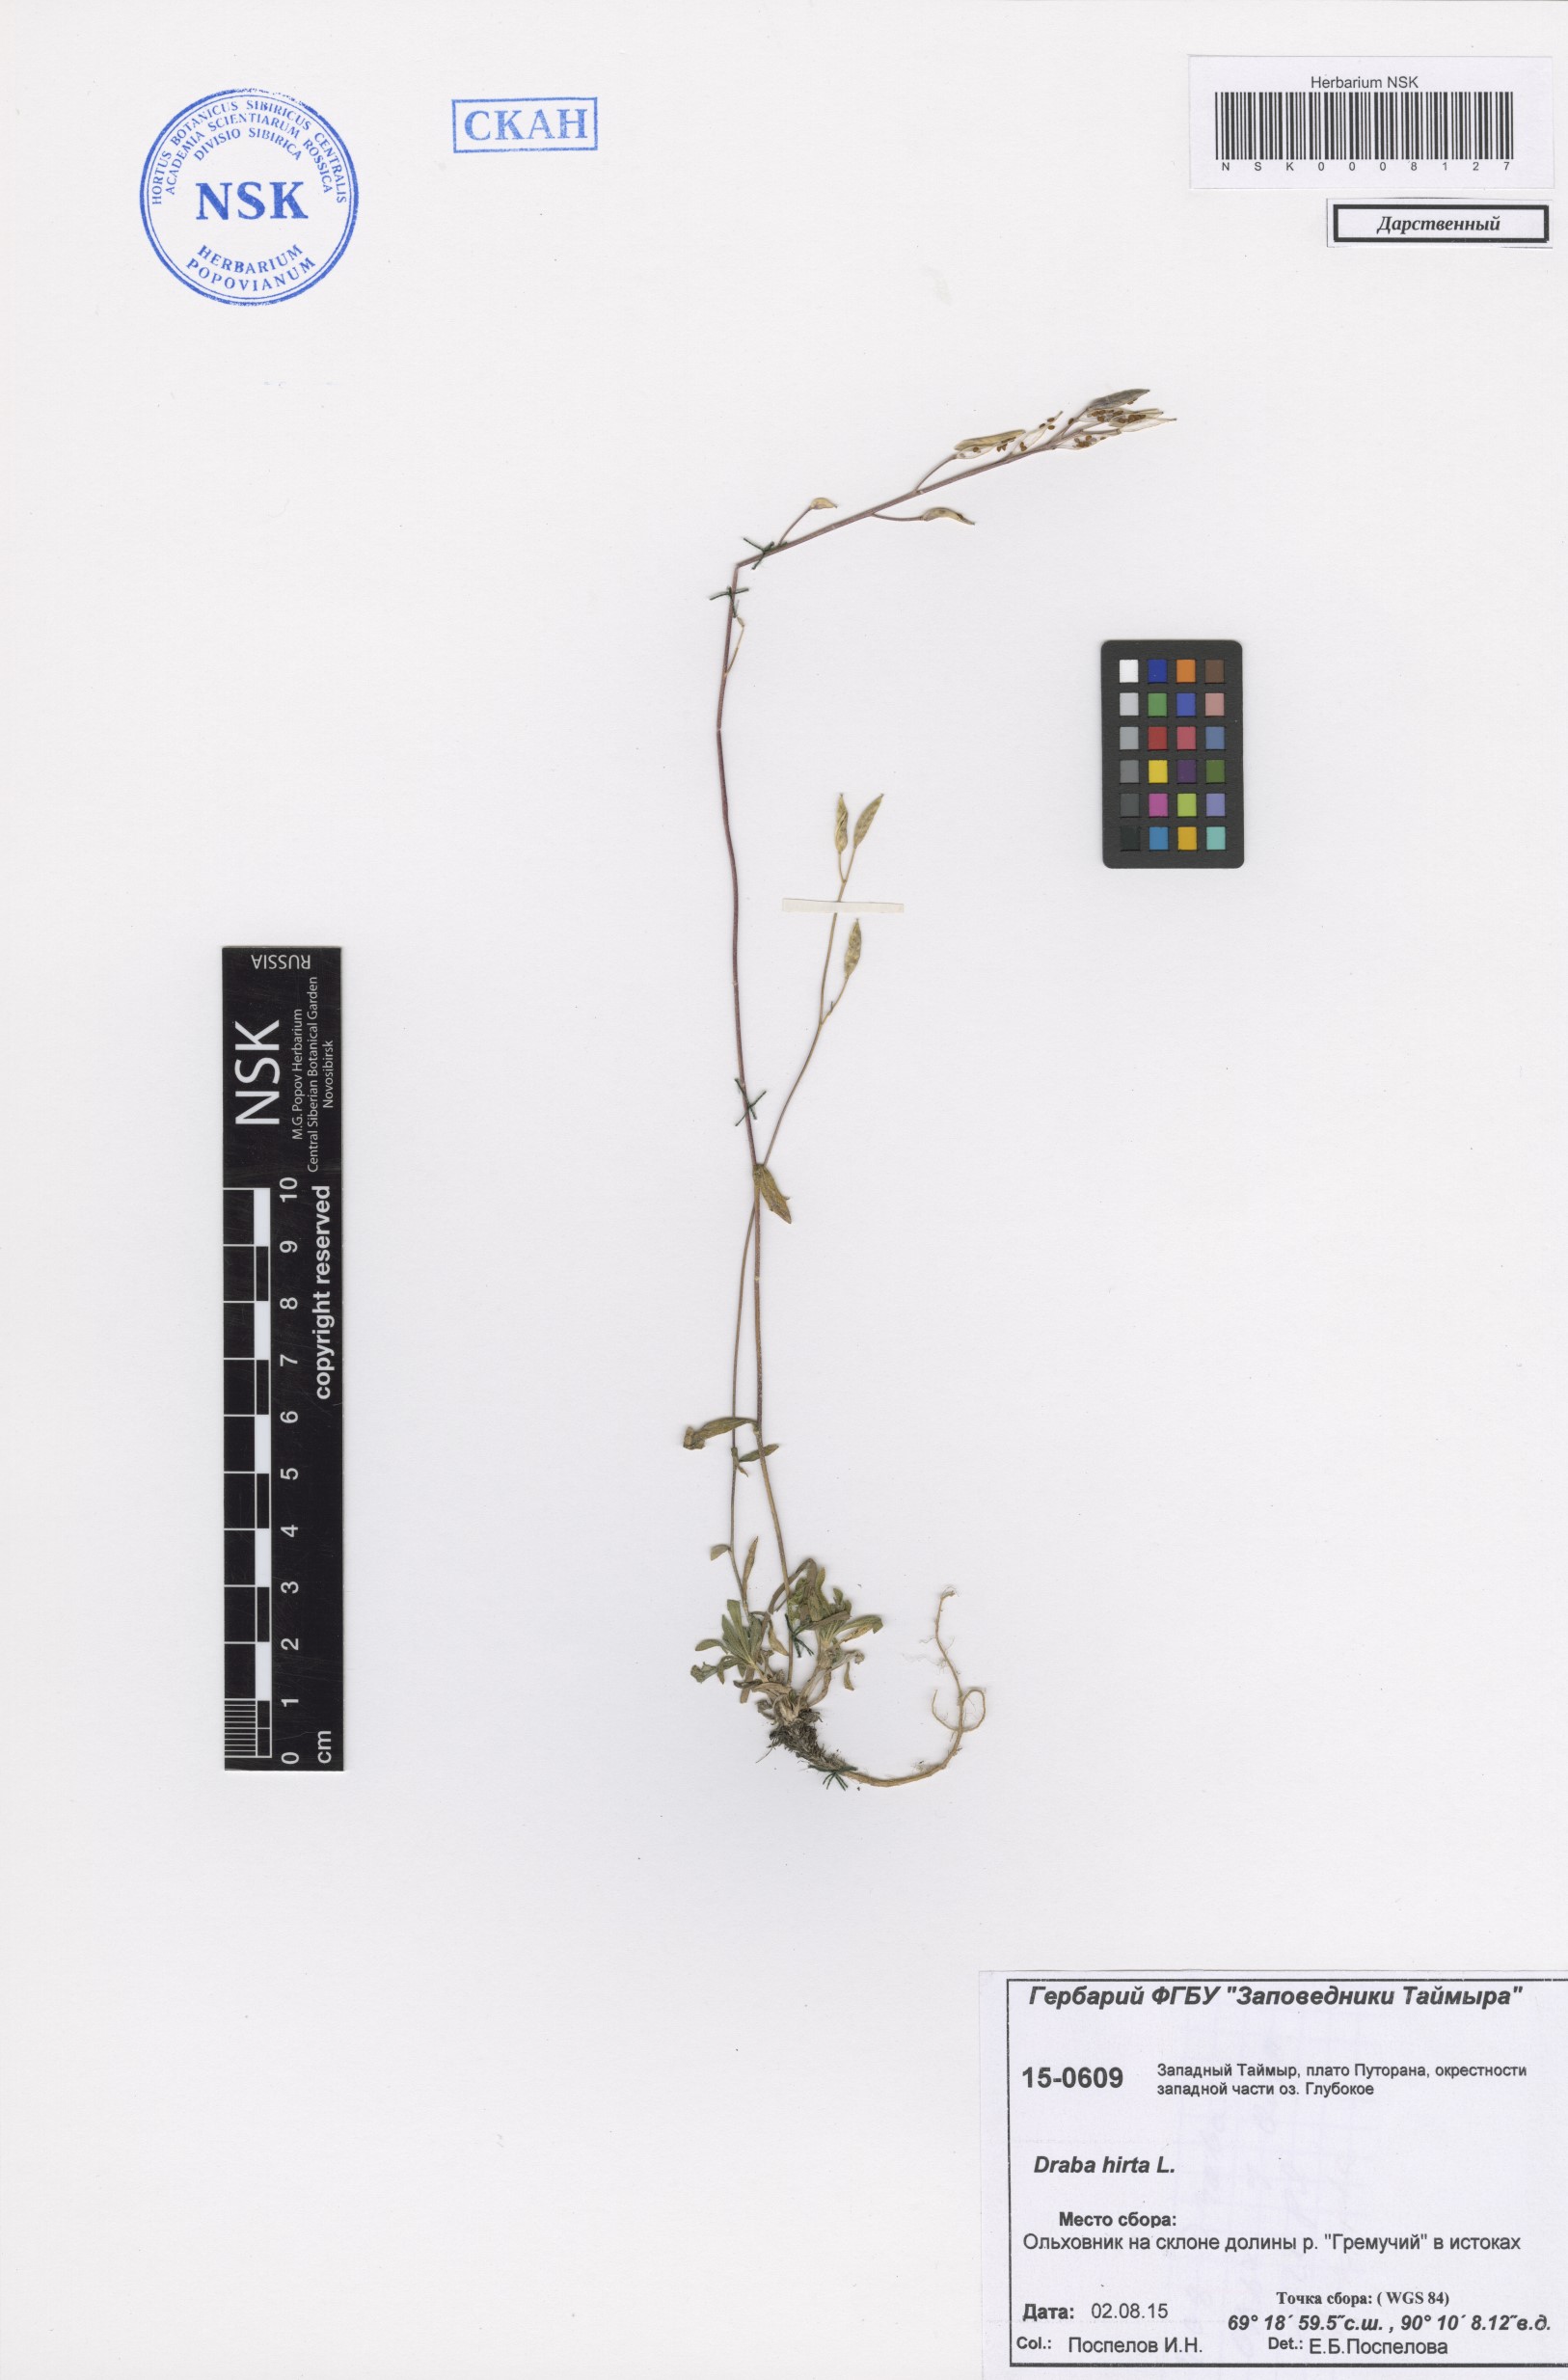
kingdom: Plantae
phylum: Tracheophyta
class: Magnoliopsida
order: Brassicales
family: Brassicaceae
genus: Draba
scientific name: Draba glabella
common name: Glaucous draba
